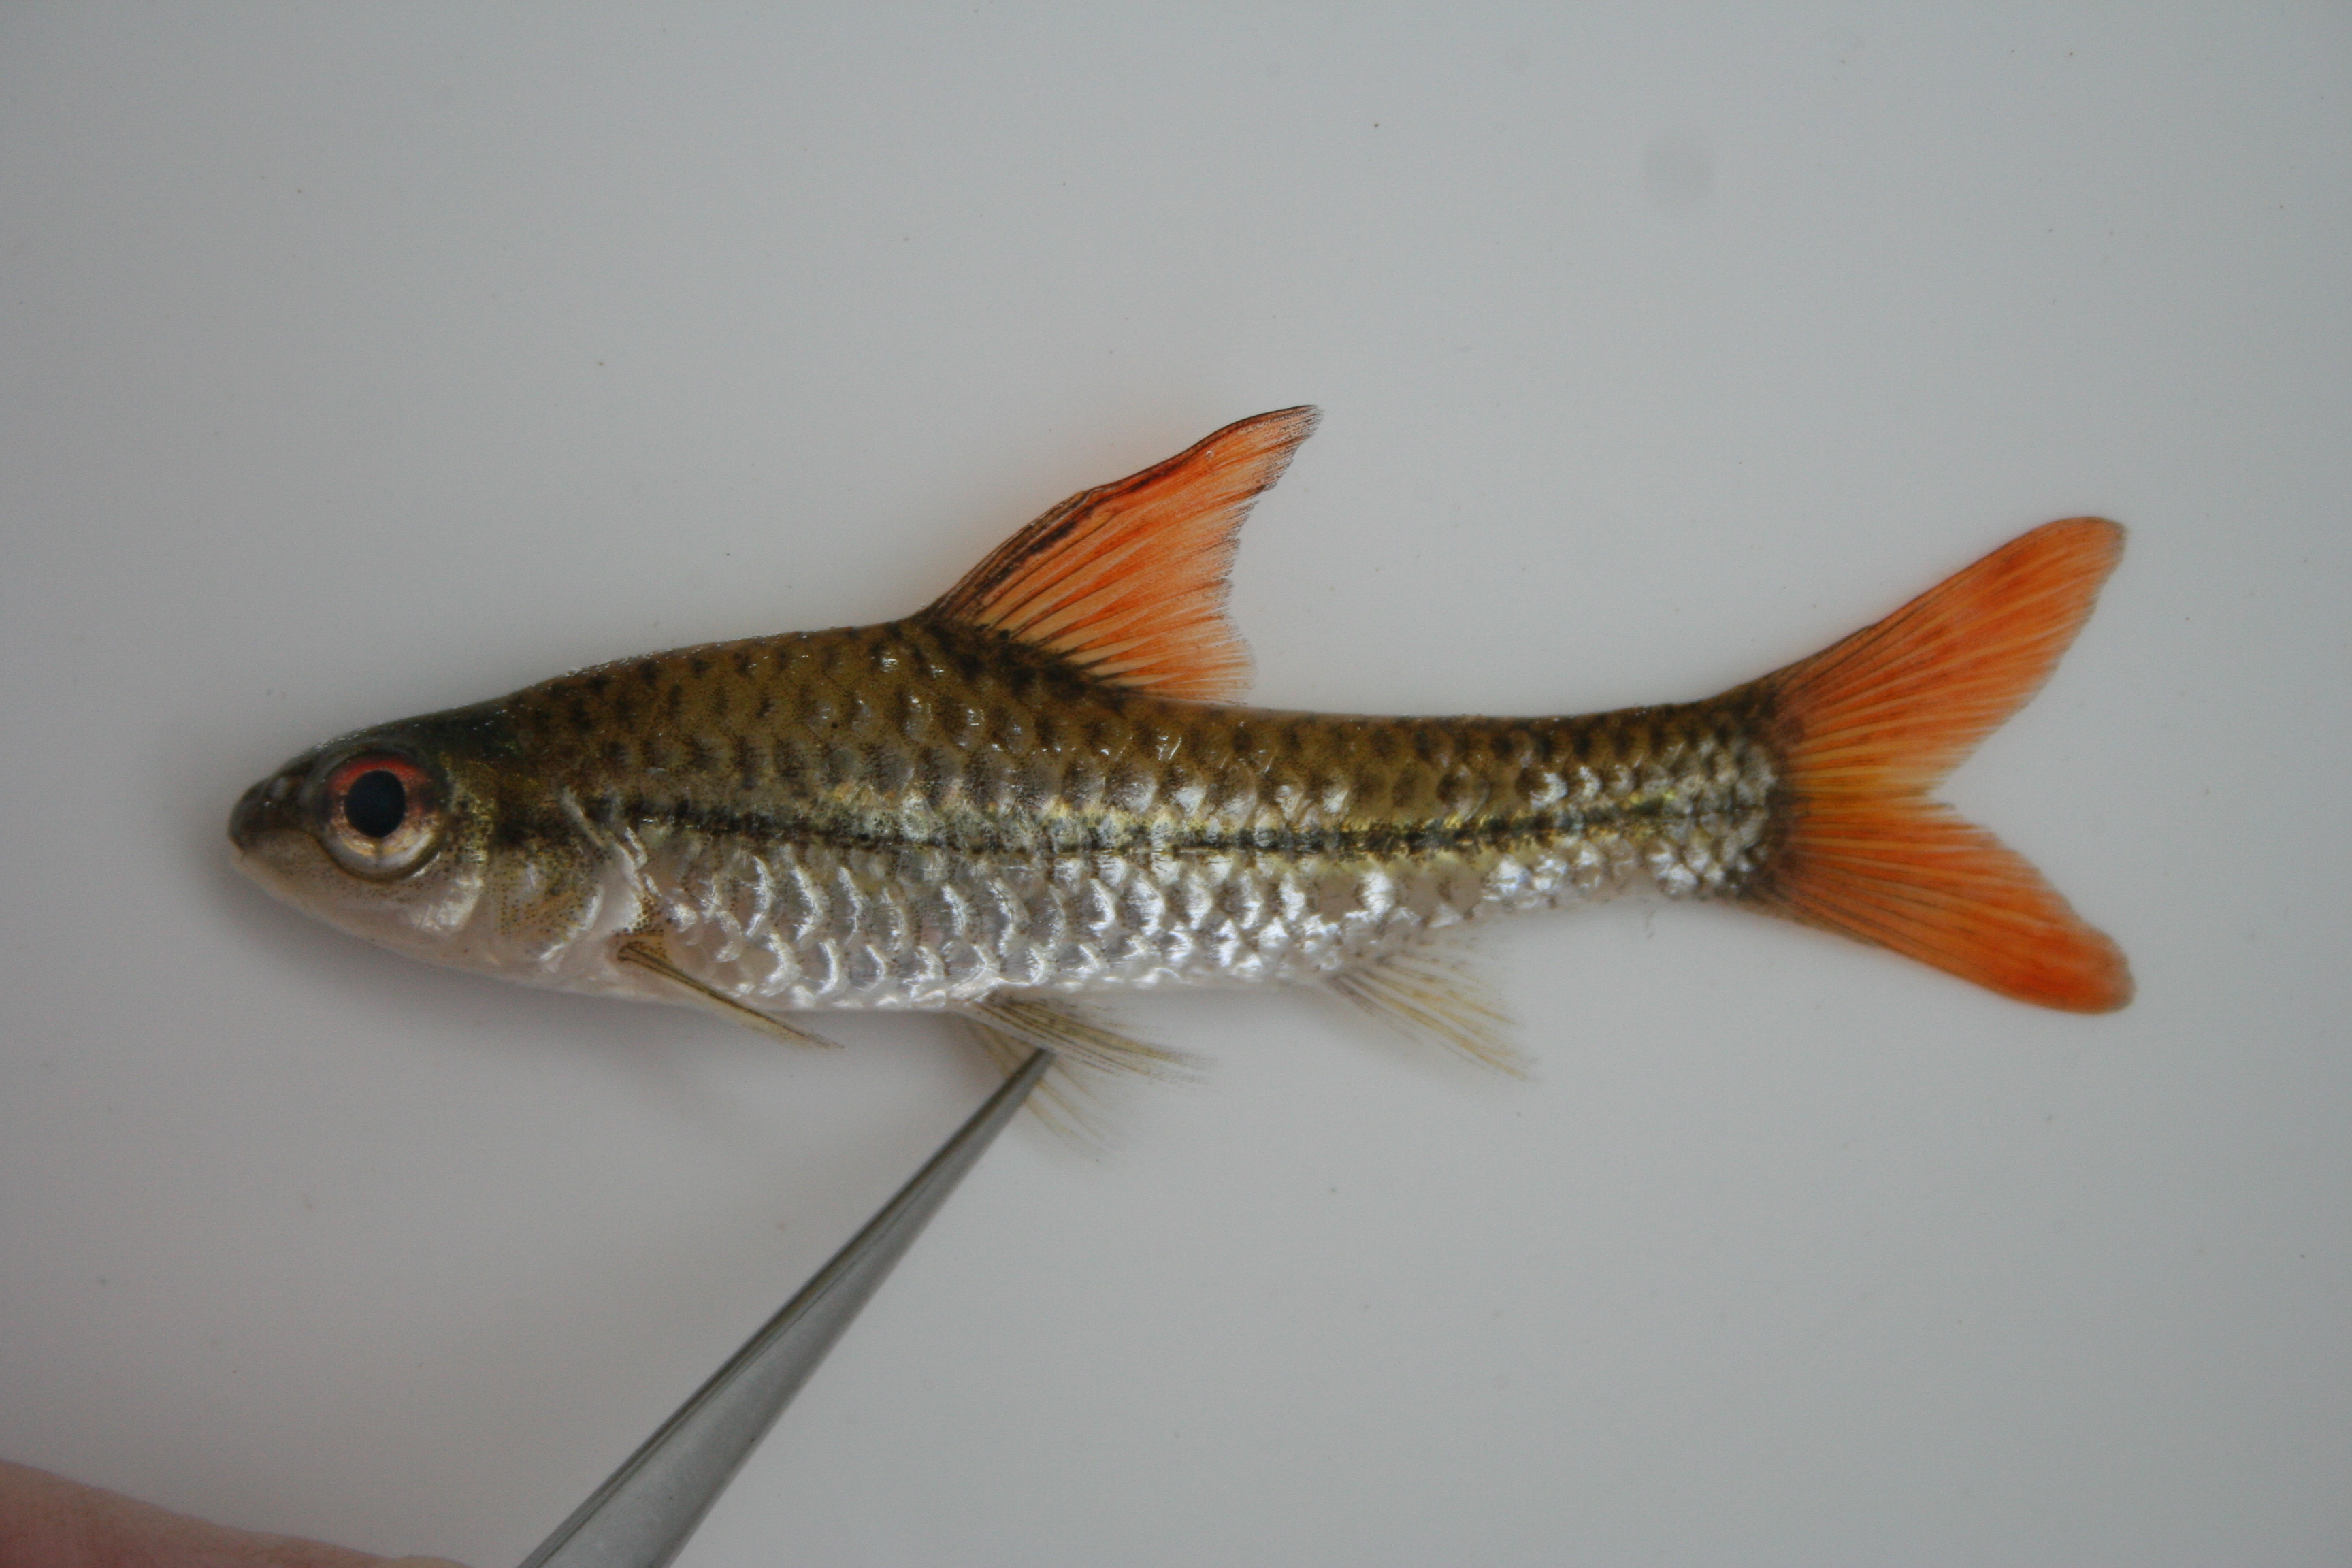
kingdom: Animalia
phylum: Chordata
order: Cypriniformes
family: Cyprinidae
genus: Enteromius
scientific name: Enteromius radiatus
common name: Beira barb
